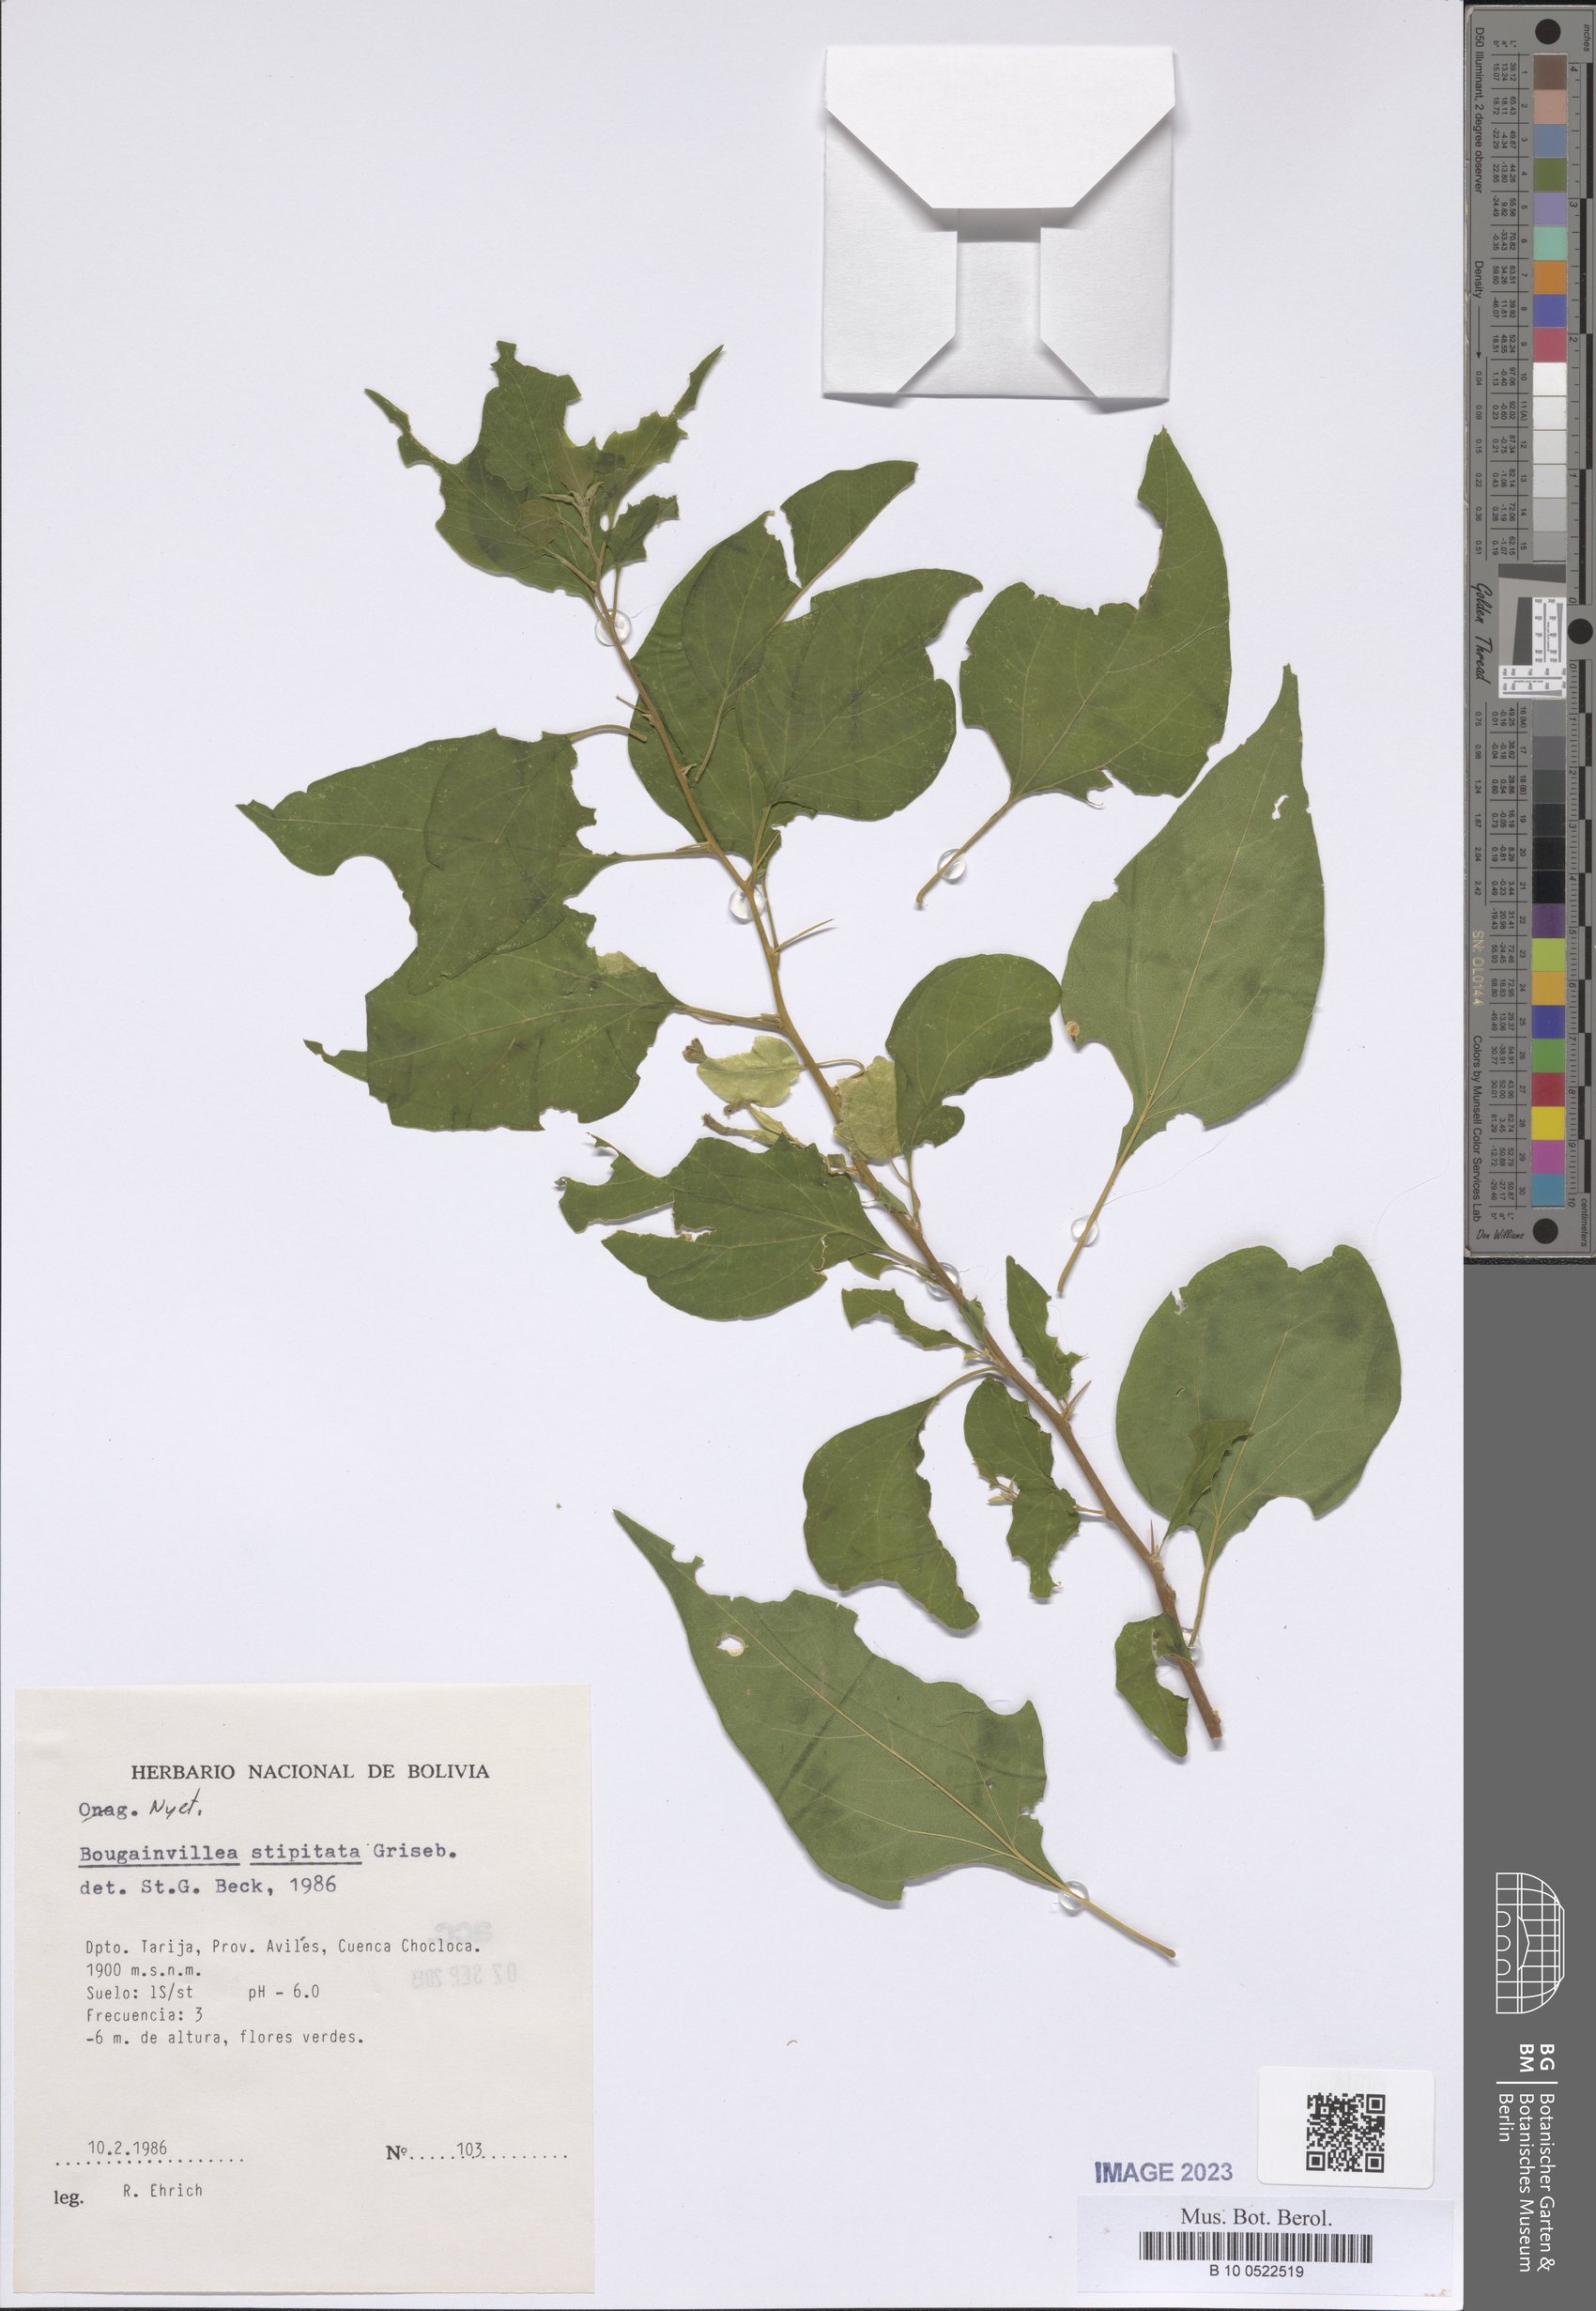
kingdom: Plantae
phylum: Tracheophyta
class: Magnoliopsida
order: Caryophyllales
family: Nyctaginaceae
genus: Bougainvillea
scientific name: Bougainvillea stipitata
